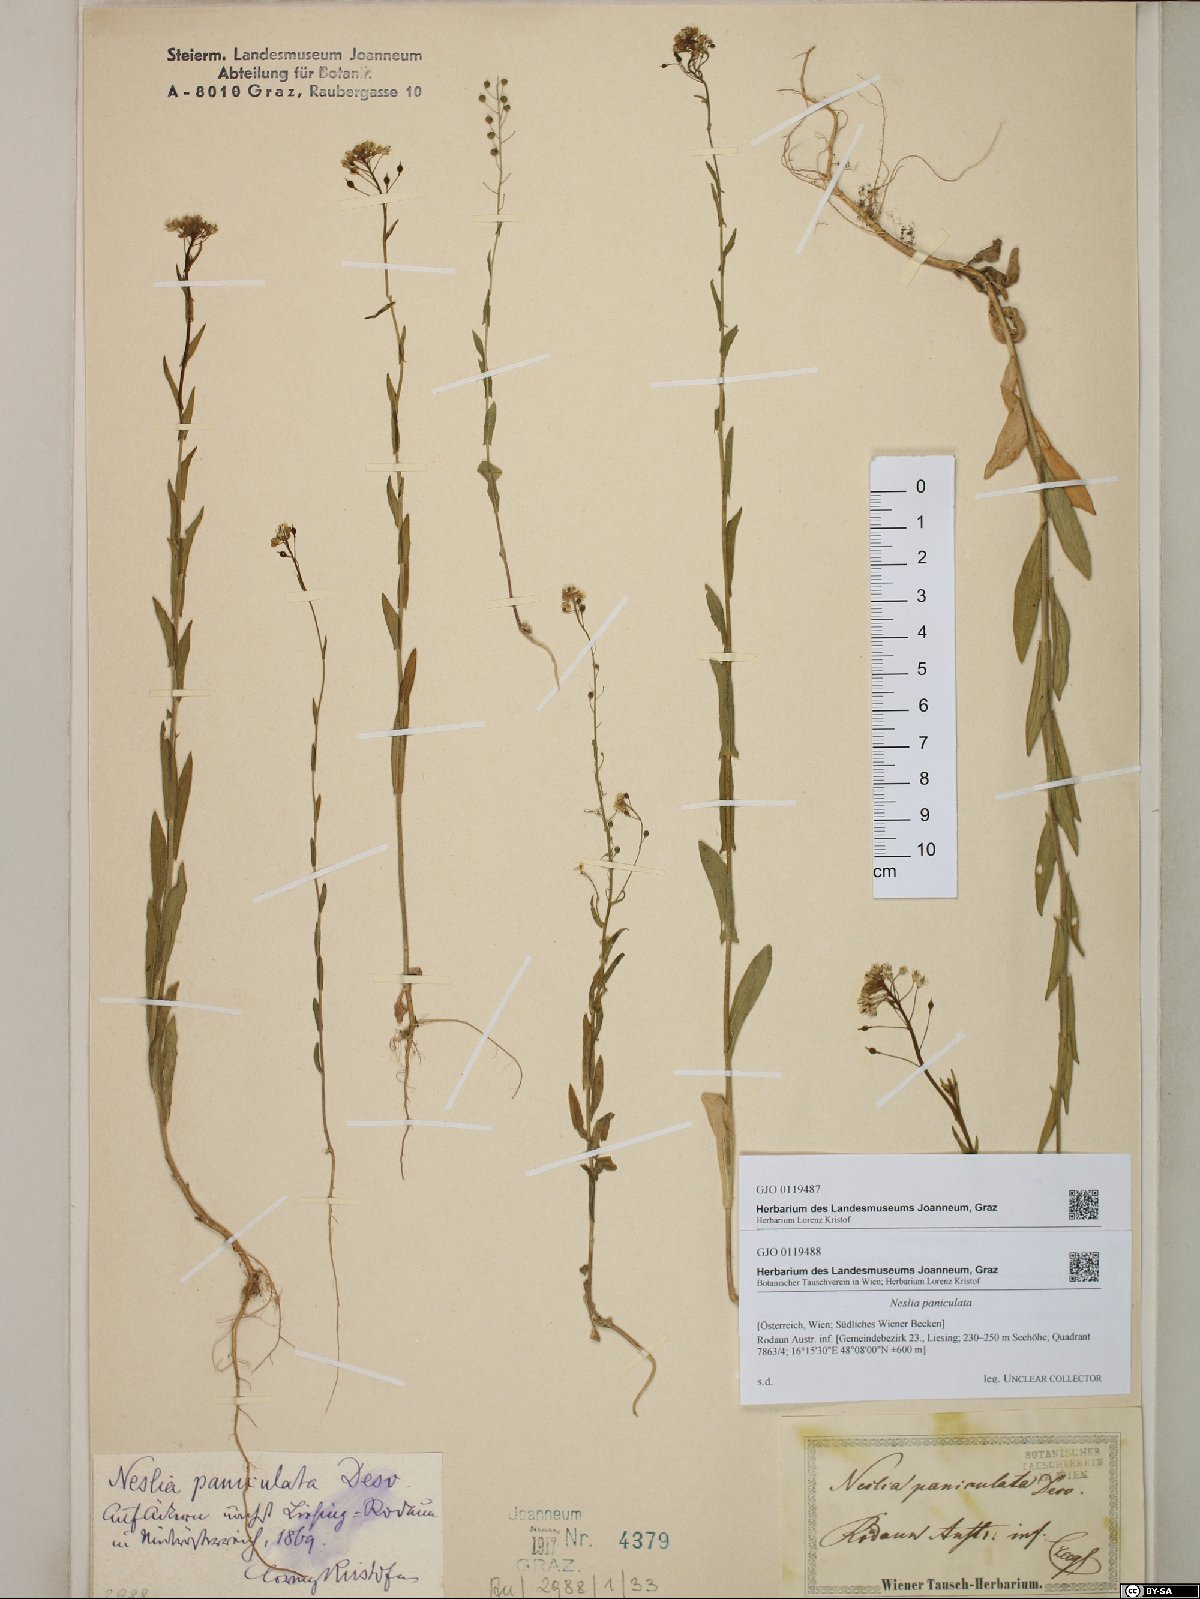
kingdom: Plantae
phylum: Tracheophyta
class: Magnoliopsida
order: Brassicales
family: Brassicaceae
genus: Neslia
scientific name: Neslia paniculata
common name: Ball mustard
